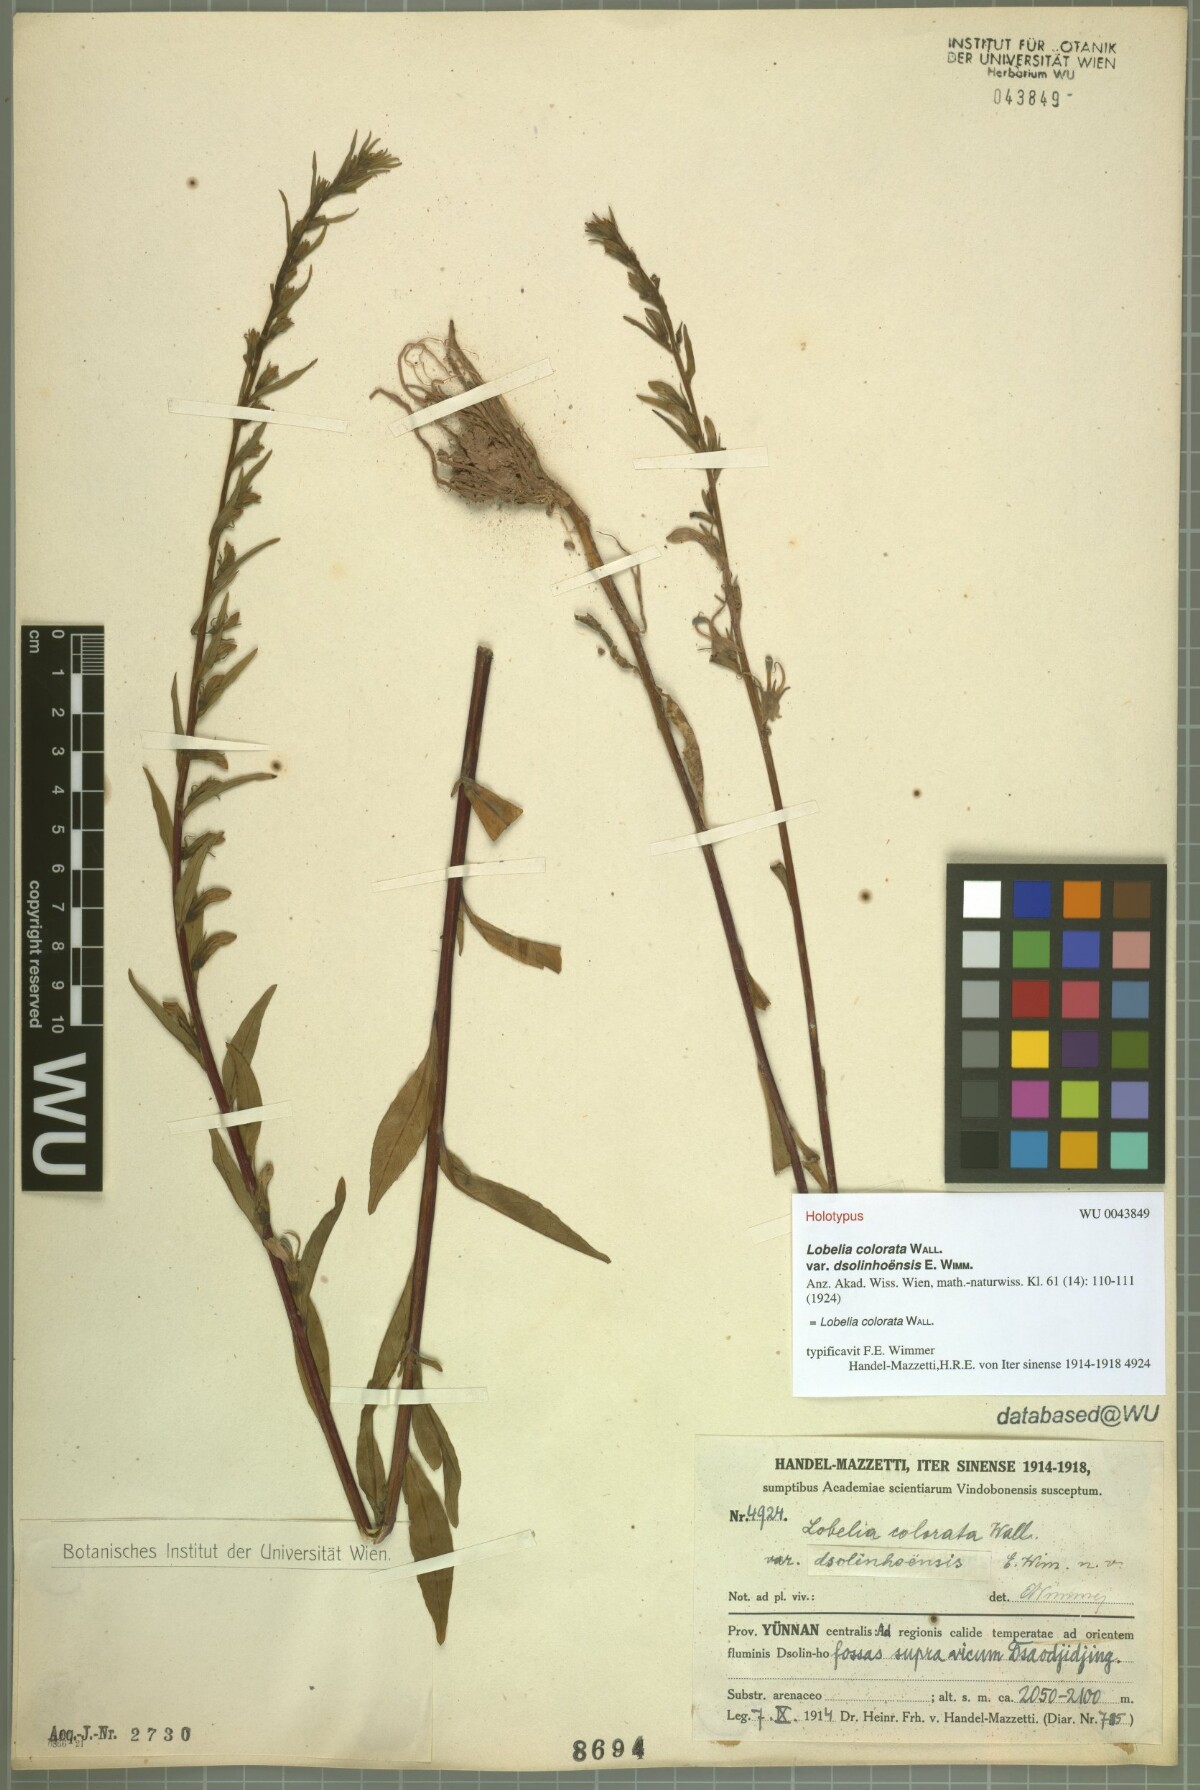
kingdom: Plantae
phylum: Tracheophyta
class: Magnoliopsida
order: Asterales
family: Campanulaceae
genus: Lobelia
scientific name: Lobelia nicotianifolia
